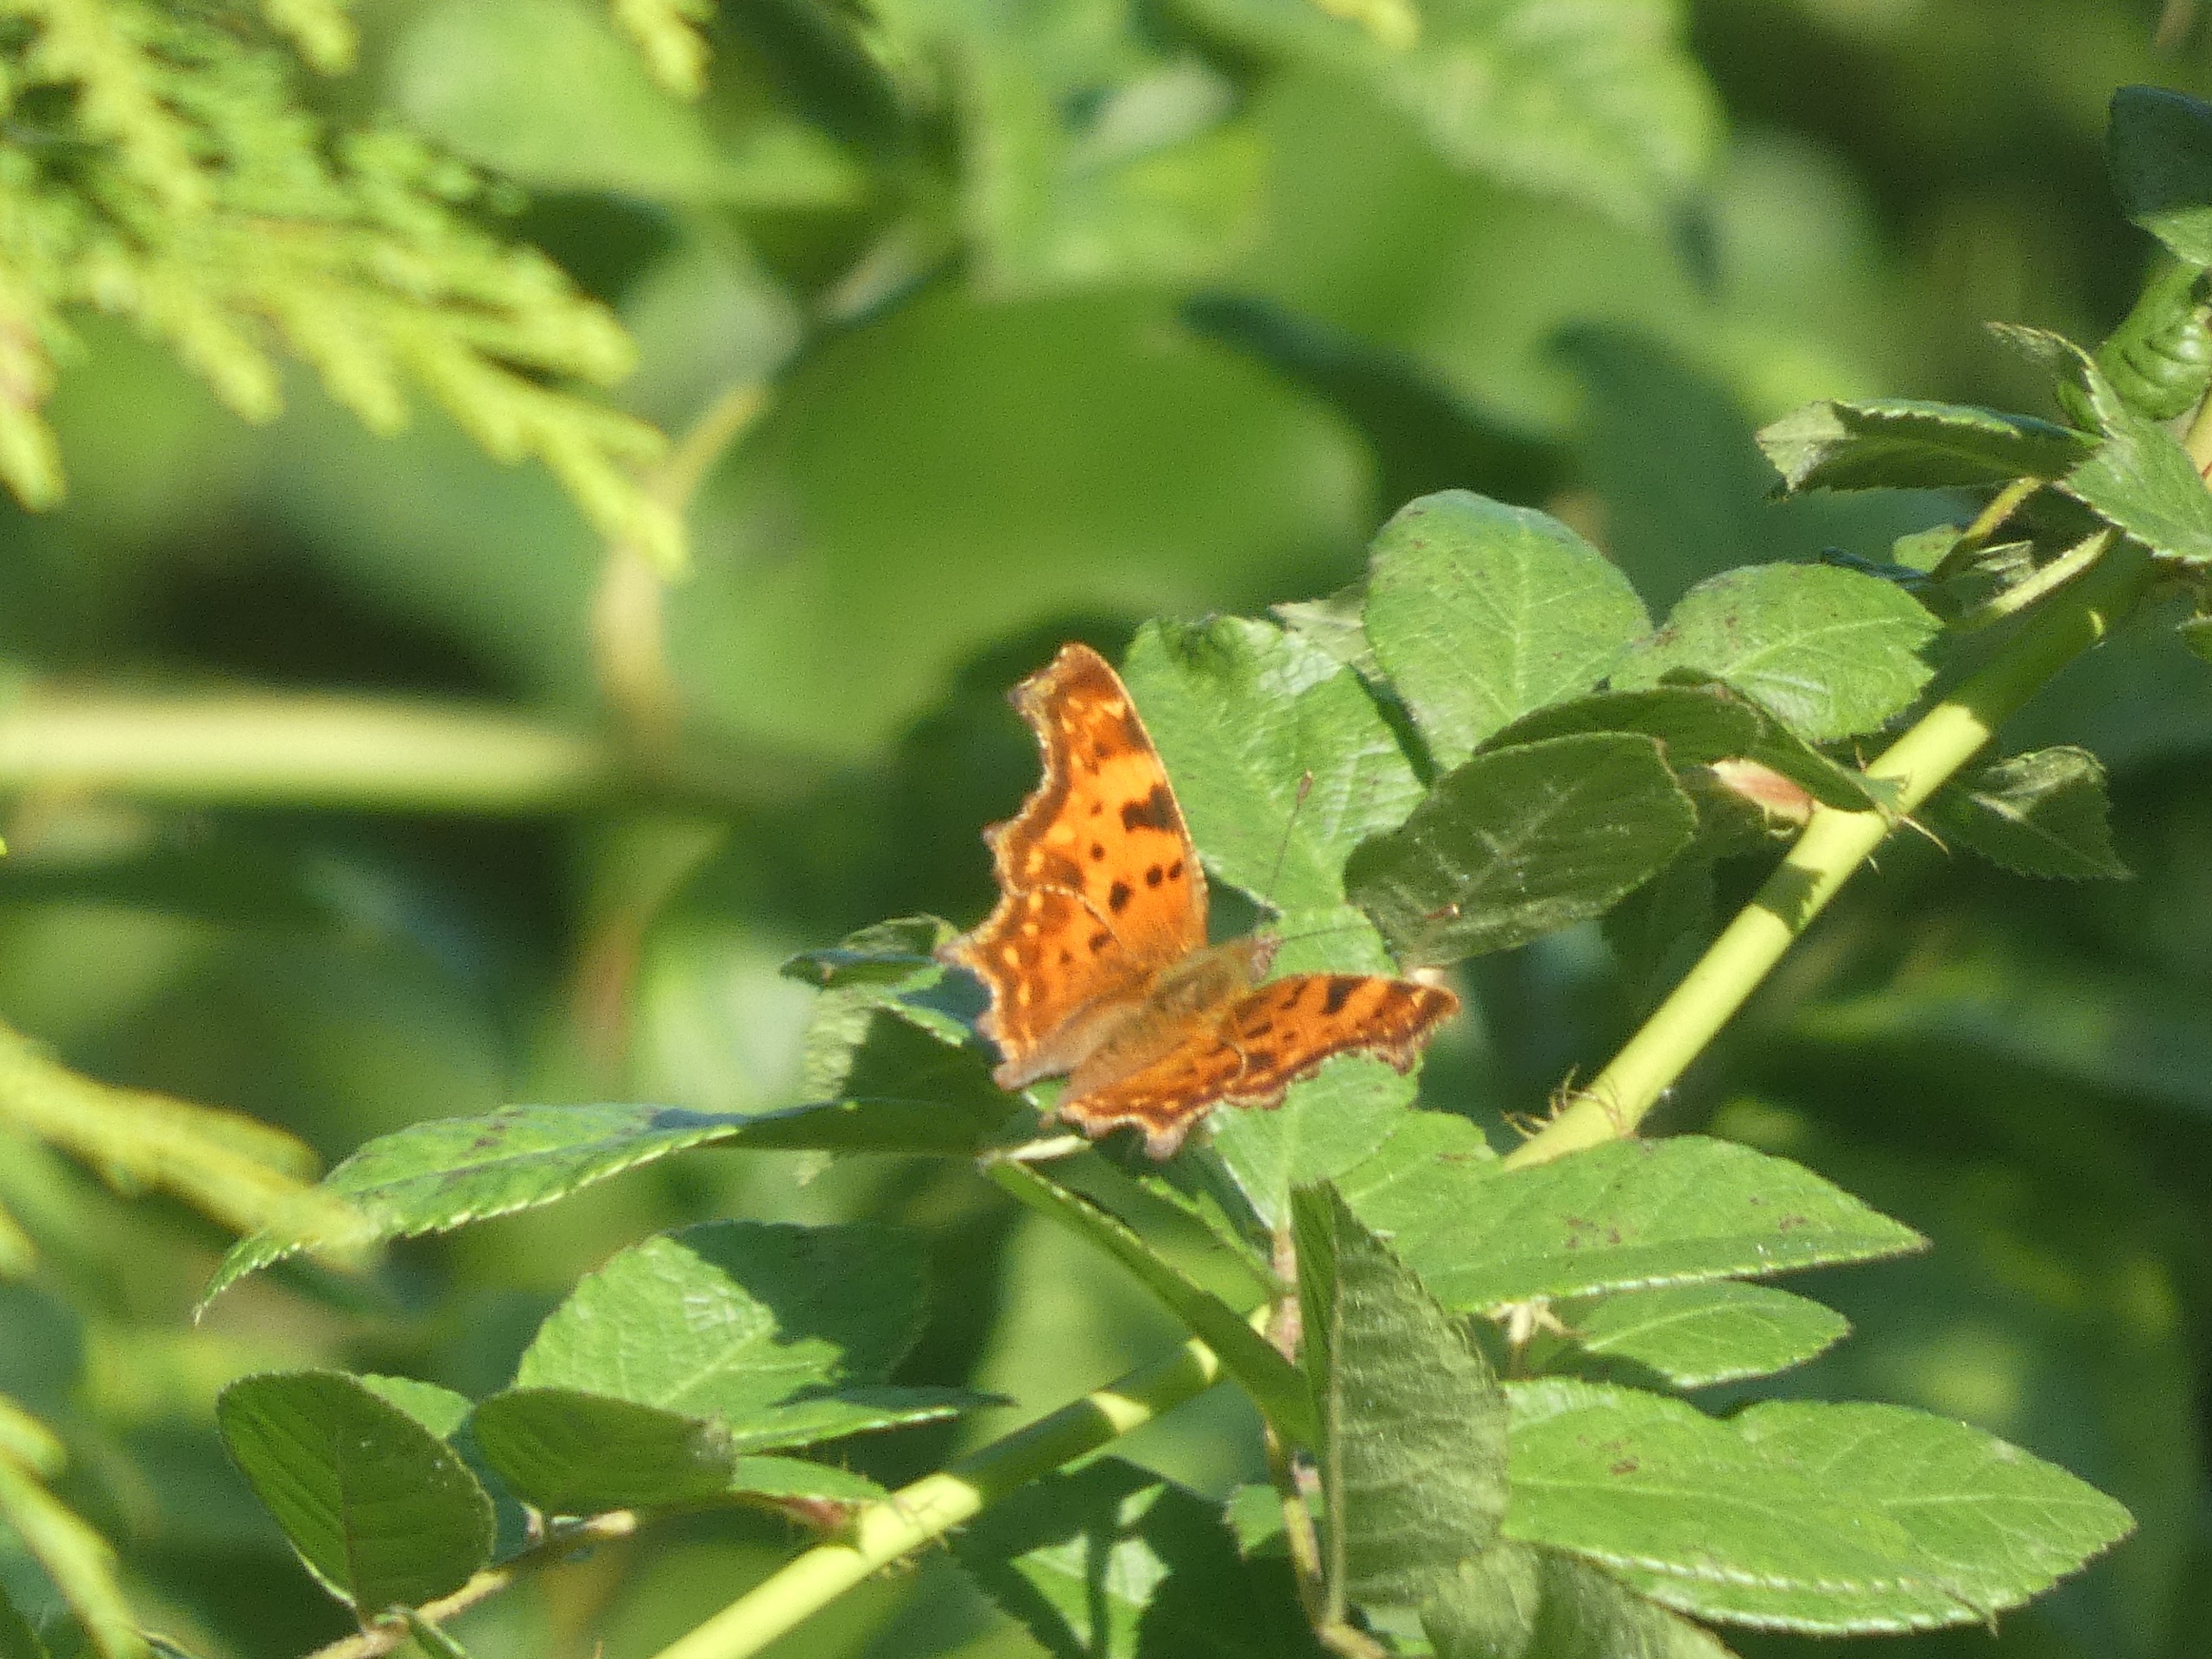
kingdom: Animalia
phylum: Arthropoda
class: Insecta
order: Lepidoptera
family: Nymphalidae
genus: Polygonia
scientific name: Polygonia c-album
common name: Det hvide C
